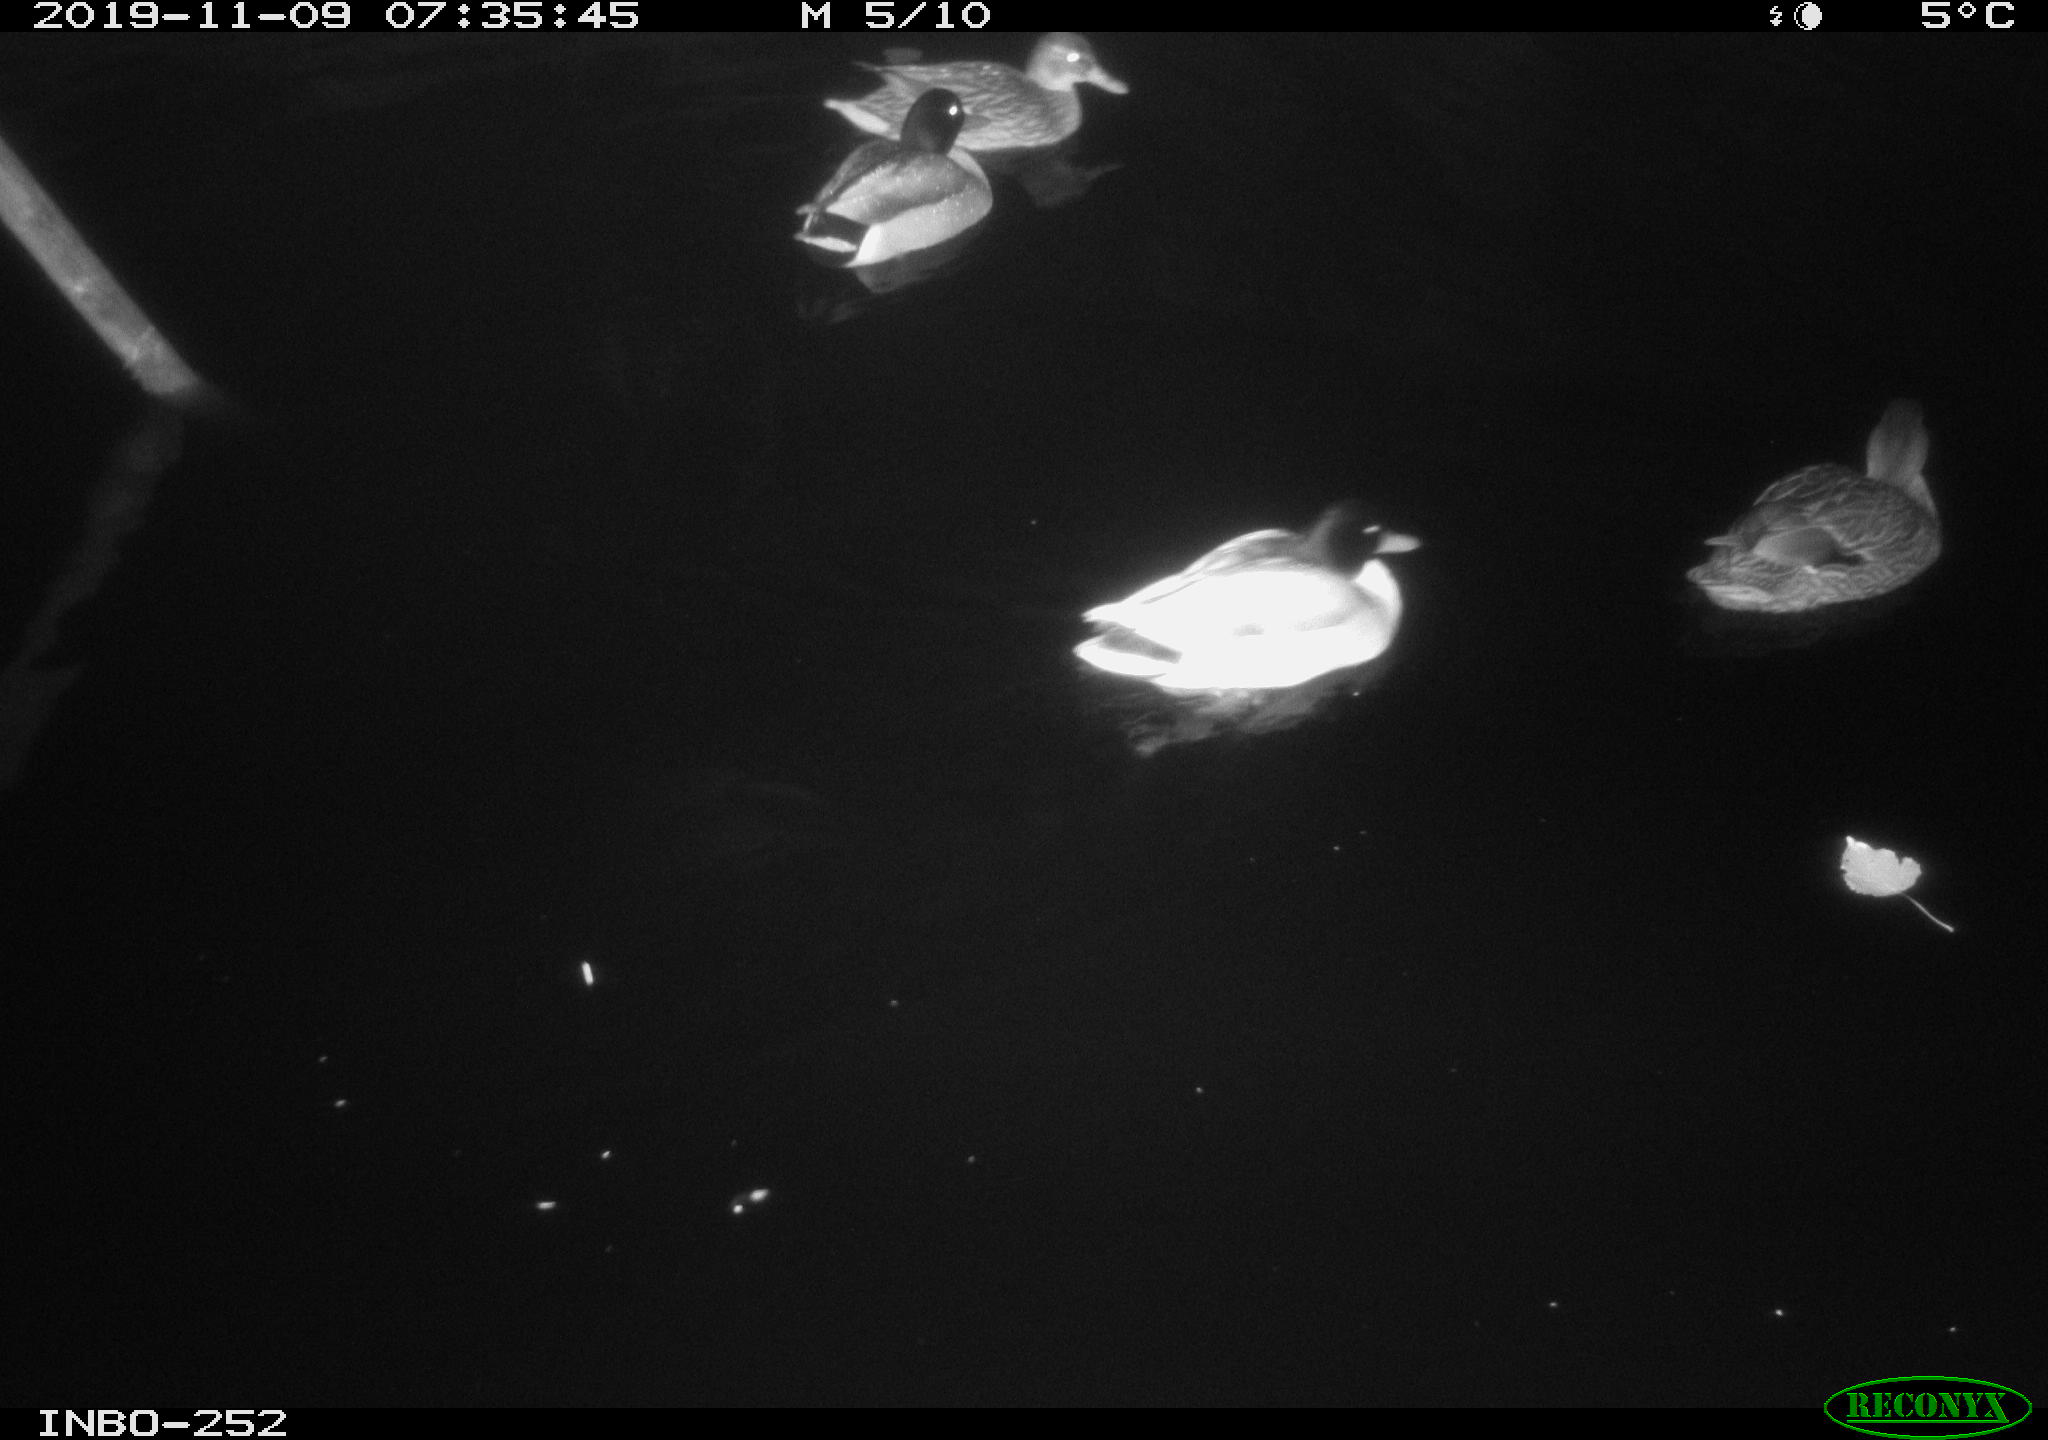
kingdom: Animalia
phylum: Chordata
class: Aves
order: Anseriformes
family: Anatidae
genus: Anas
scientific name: Anas platyrhynchos
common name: Mallard
